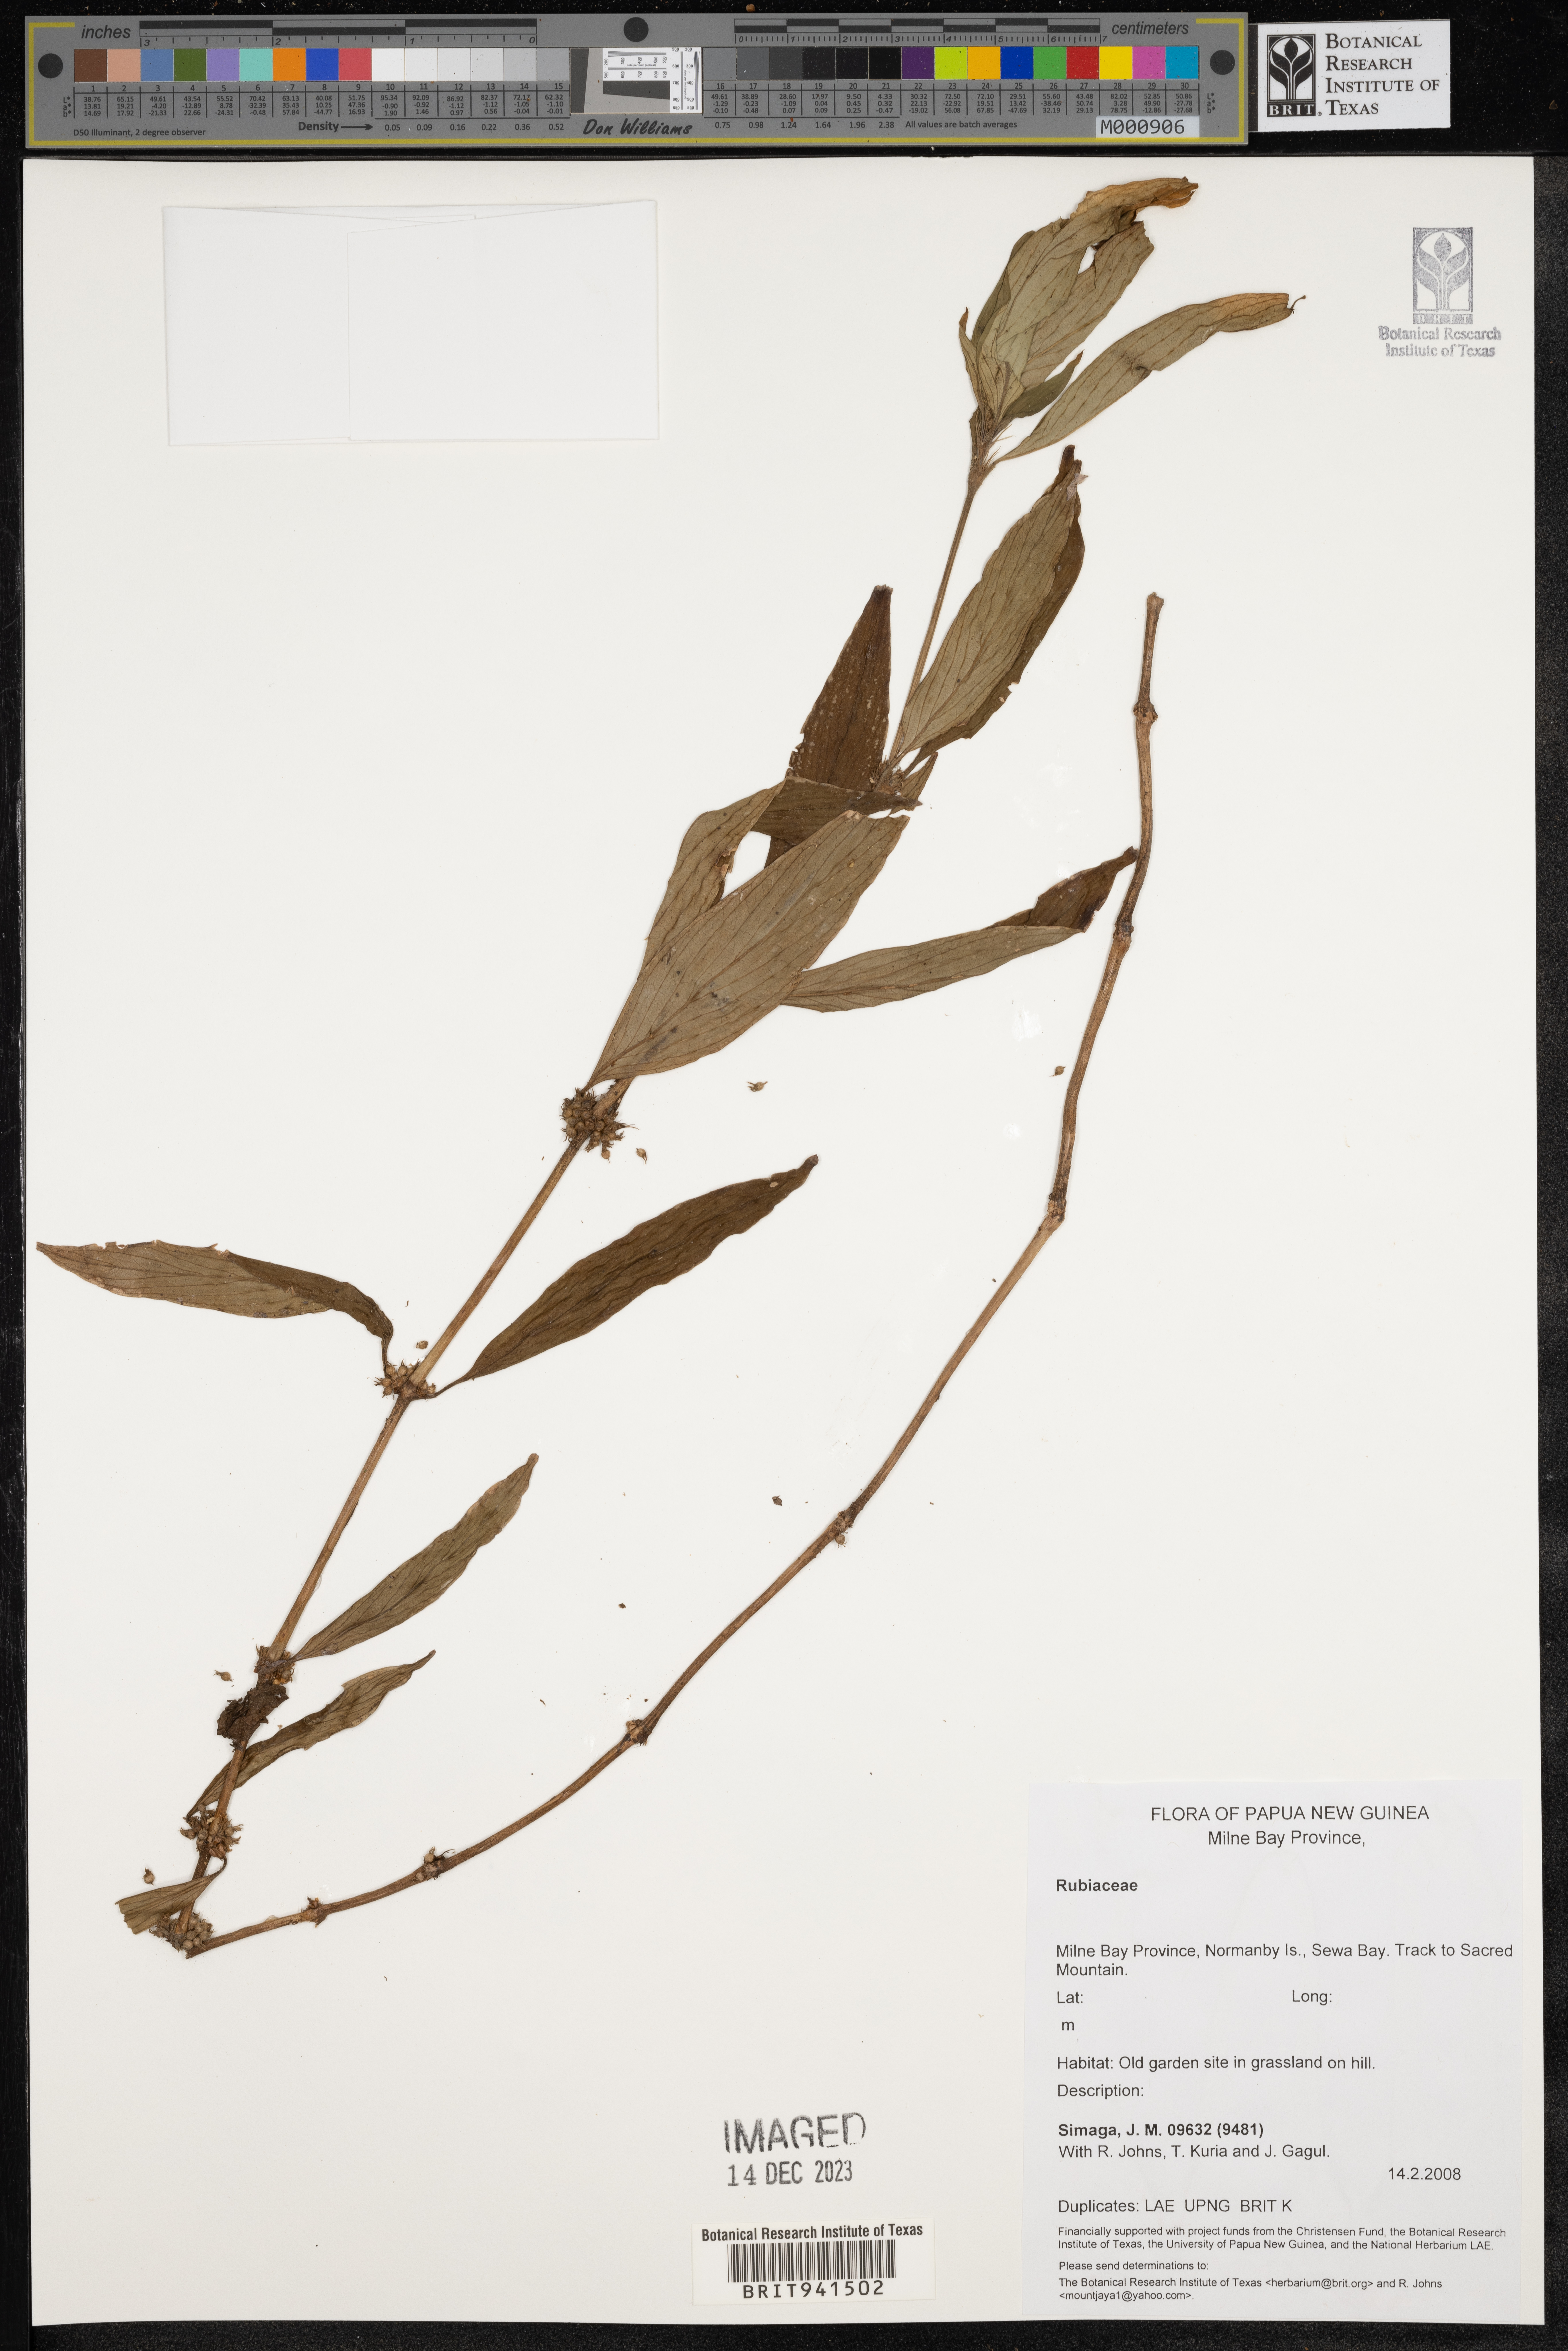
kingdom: Plantae
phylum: Tracheophyta
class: Magnoliopsida
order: Gentianales
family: Rubiaceae
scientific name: Rubiaceae
